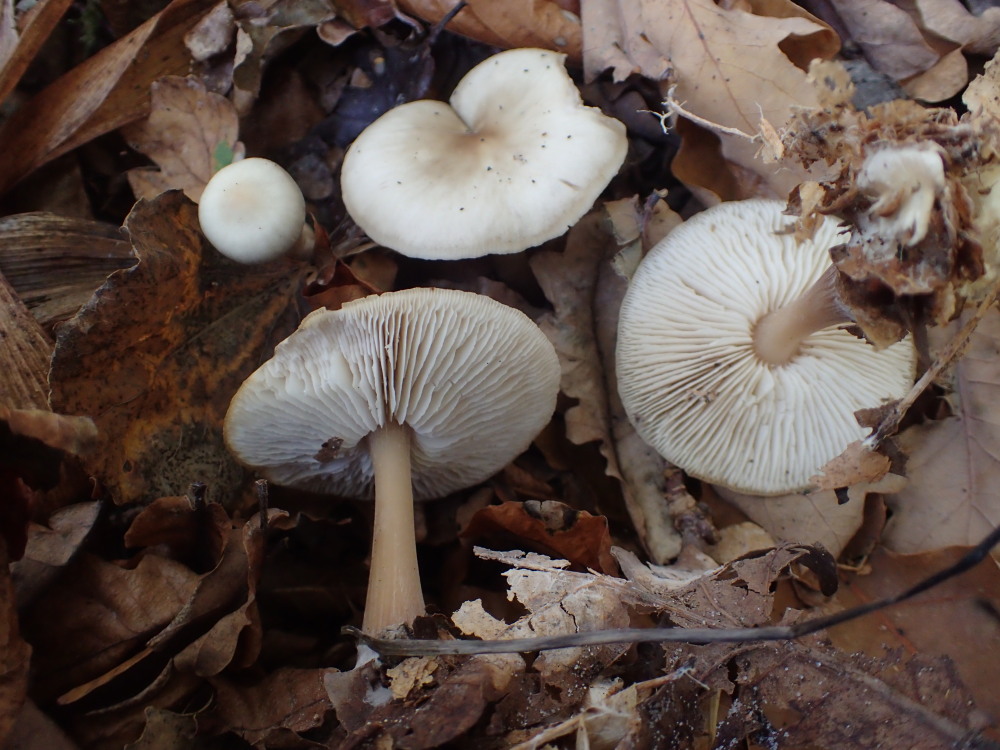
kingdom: Fungi
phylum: Basidiomycota
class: Agaricomycetes
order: Agaricales
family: Omphalotaceae
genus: Rhodocollybia
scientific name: Rhodocollybia asema
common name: horngrå fladhat
